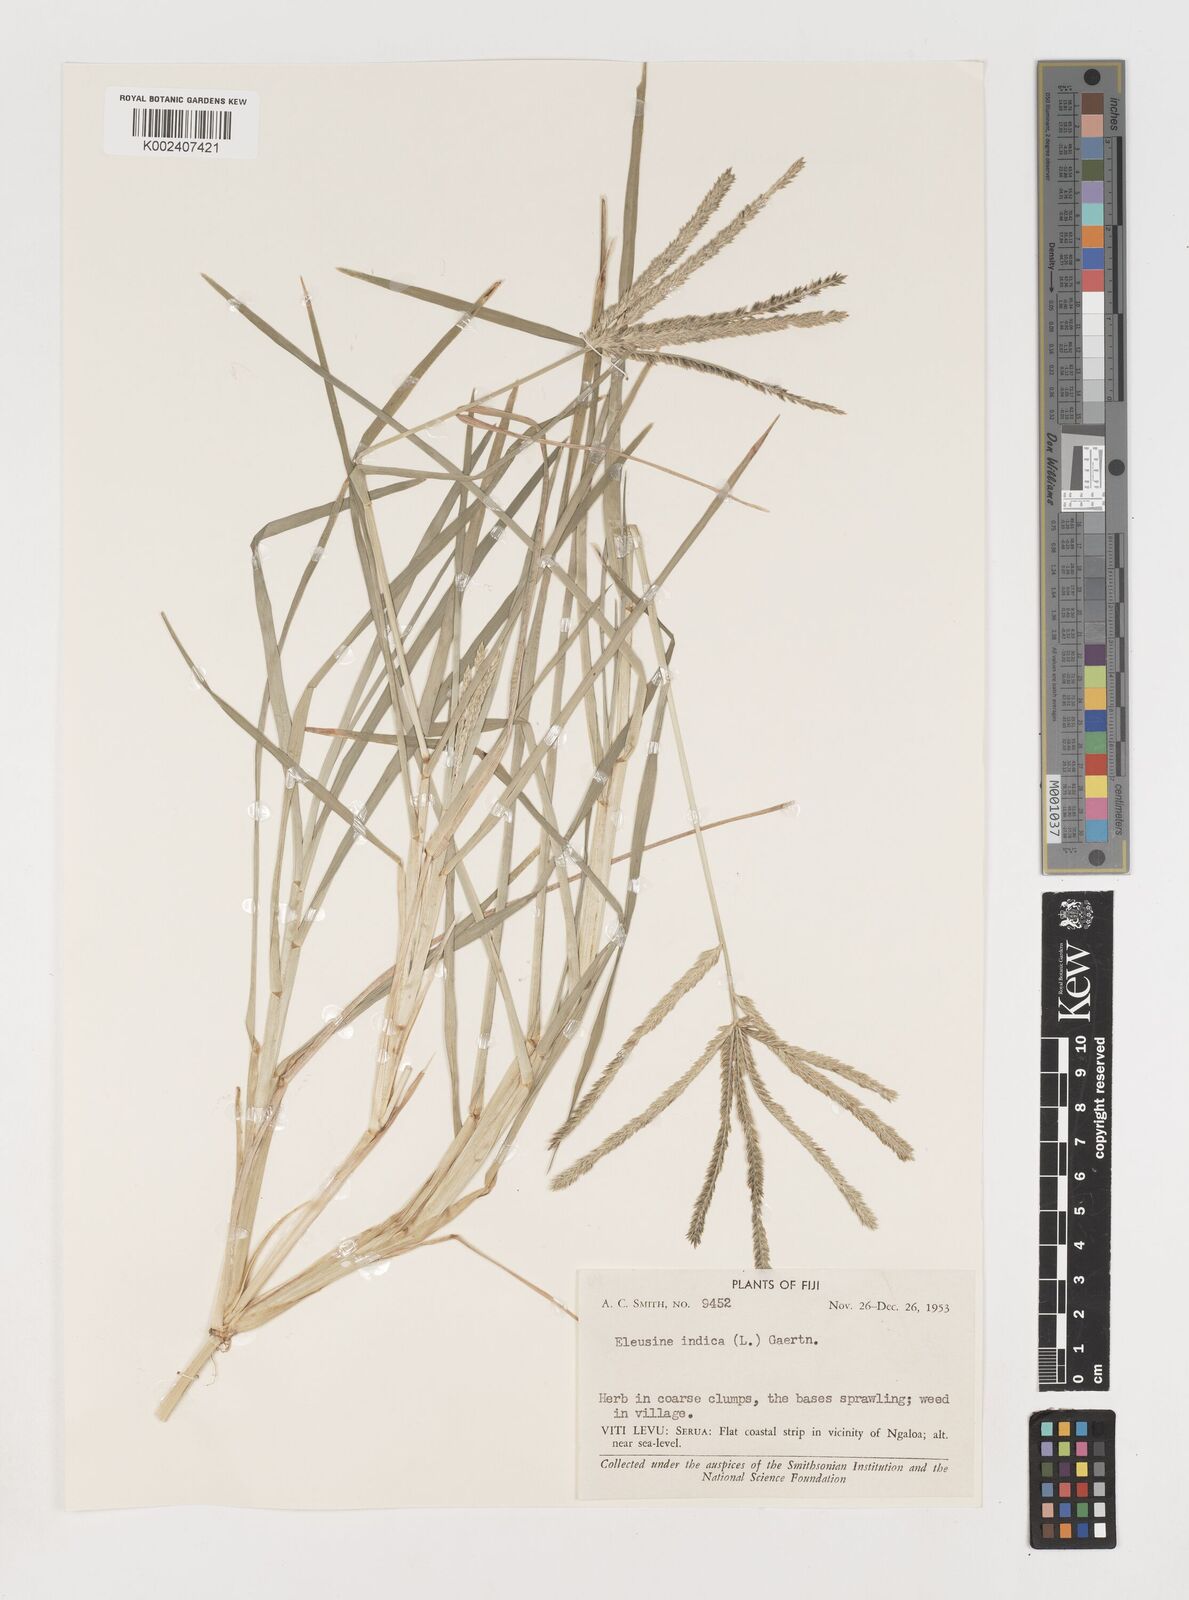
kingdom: Plantae
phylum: Tracheophyta
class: Liliopsida
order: Poales
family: Poaceae
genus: Eleusine
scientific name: Eleusine indica
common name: Yard-grass
